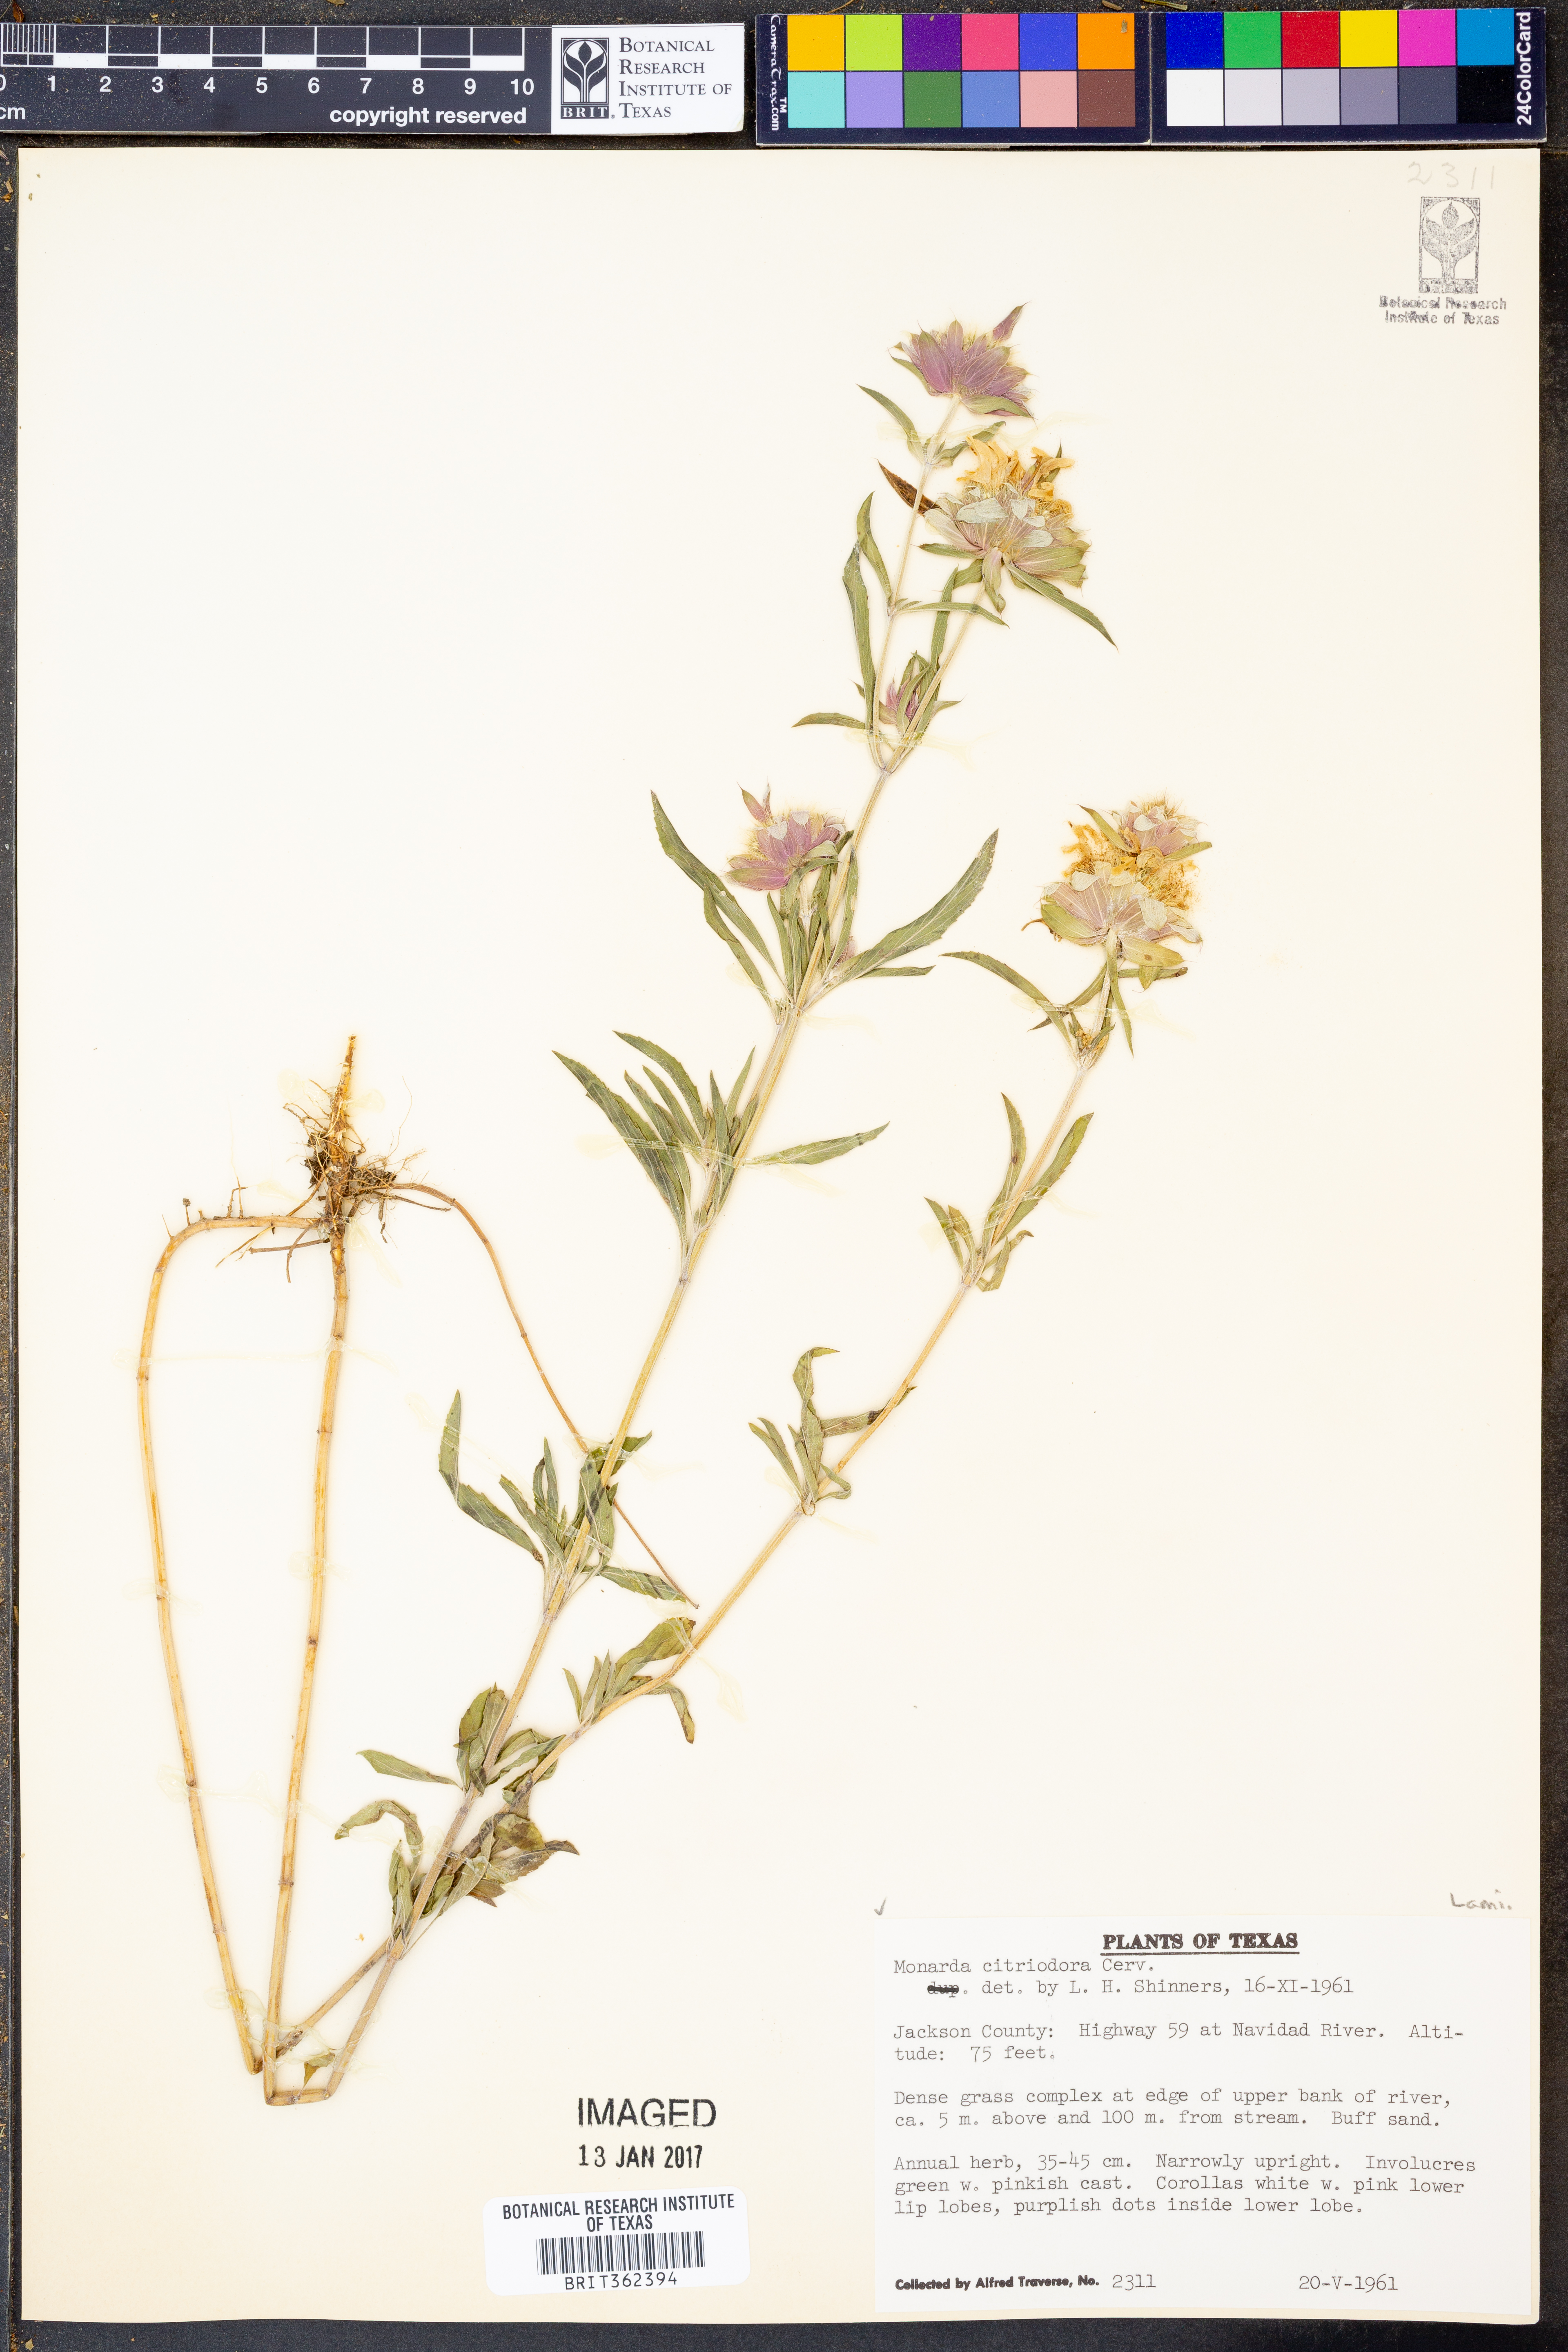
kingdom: Plantae
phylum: Tracheophyta
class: Magnoliopsida
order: Lamiales
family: Lamiaceae
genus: Monarda
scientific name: Monarda citriodora
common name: Lemon beebalm
